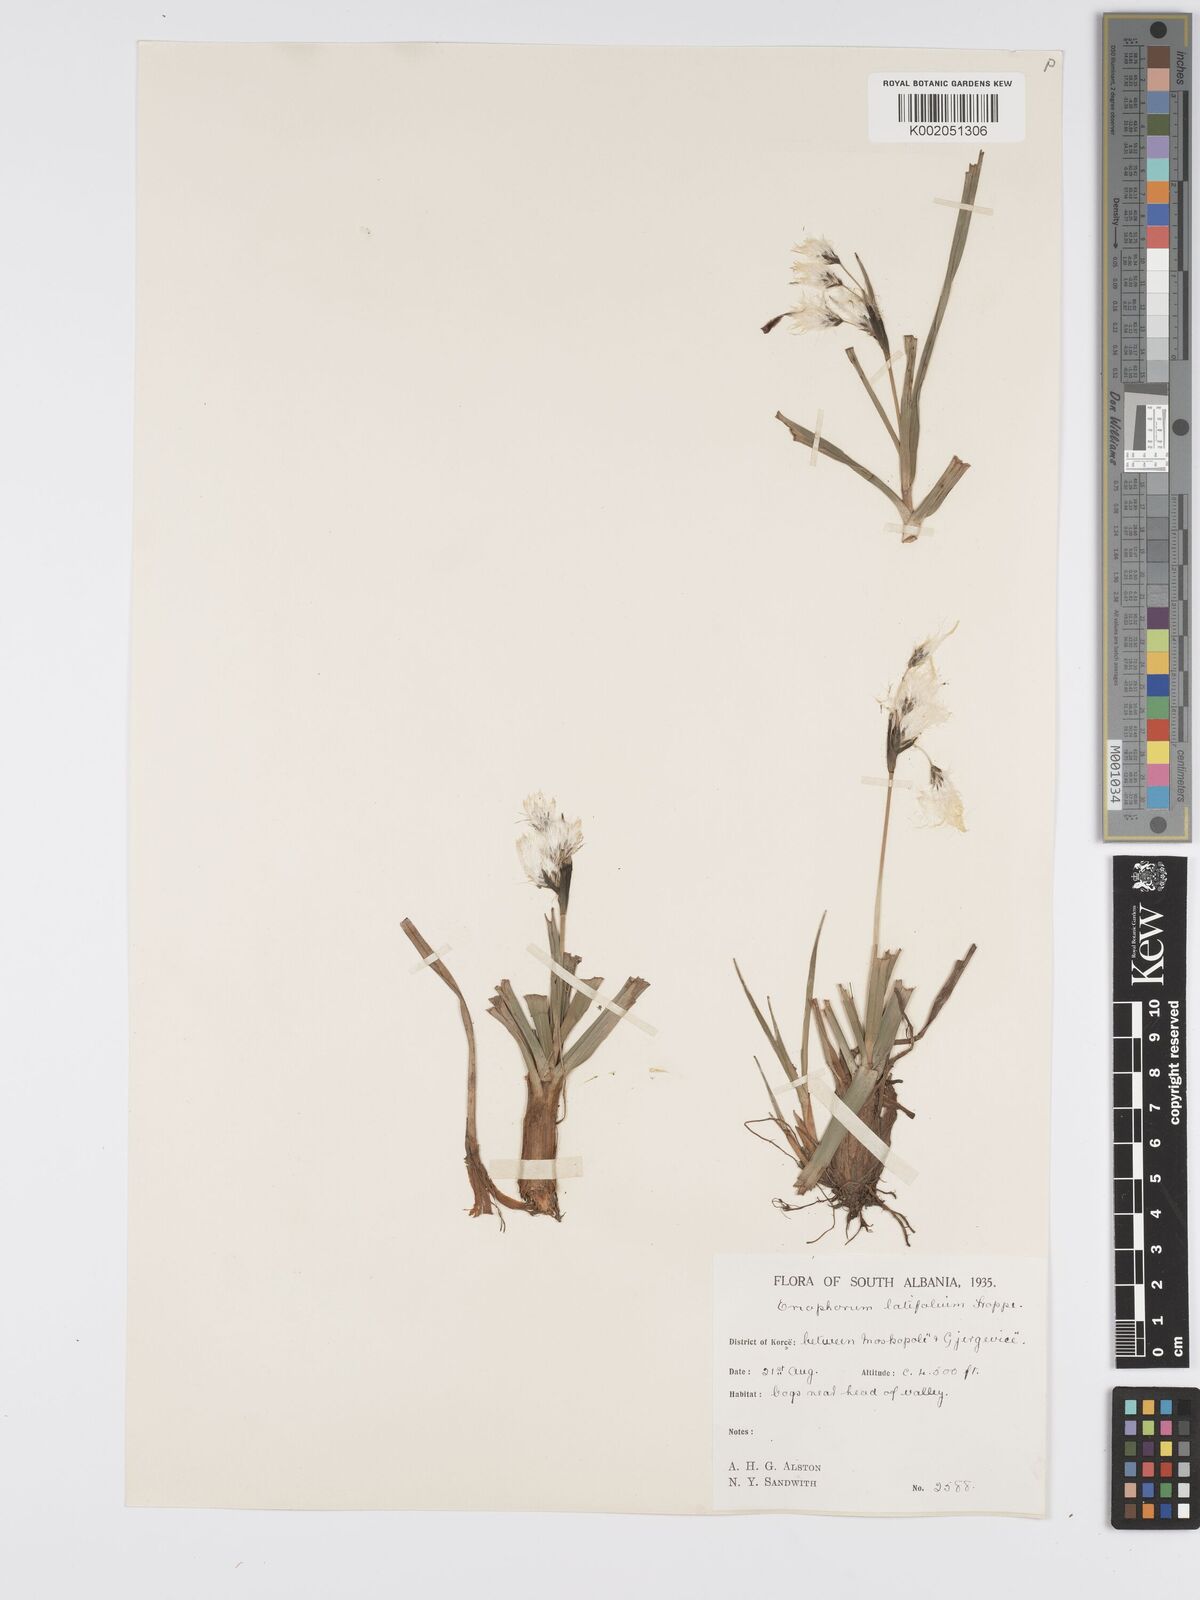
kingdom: Plantae
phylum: Tracheophyta
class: Liliopsida
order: Poales
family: Cyperaceae
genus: Eriophorum
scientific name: Eriophorum latifolium
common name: Broad-leaved cottongrass
